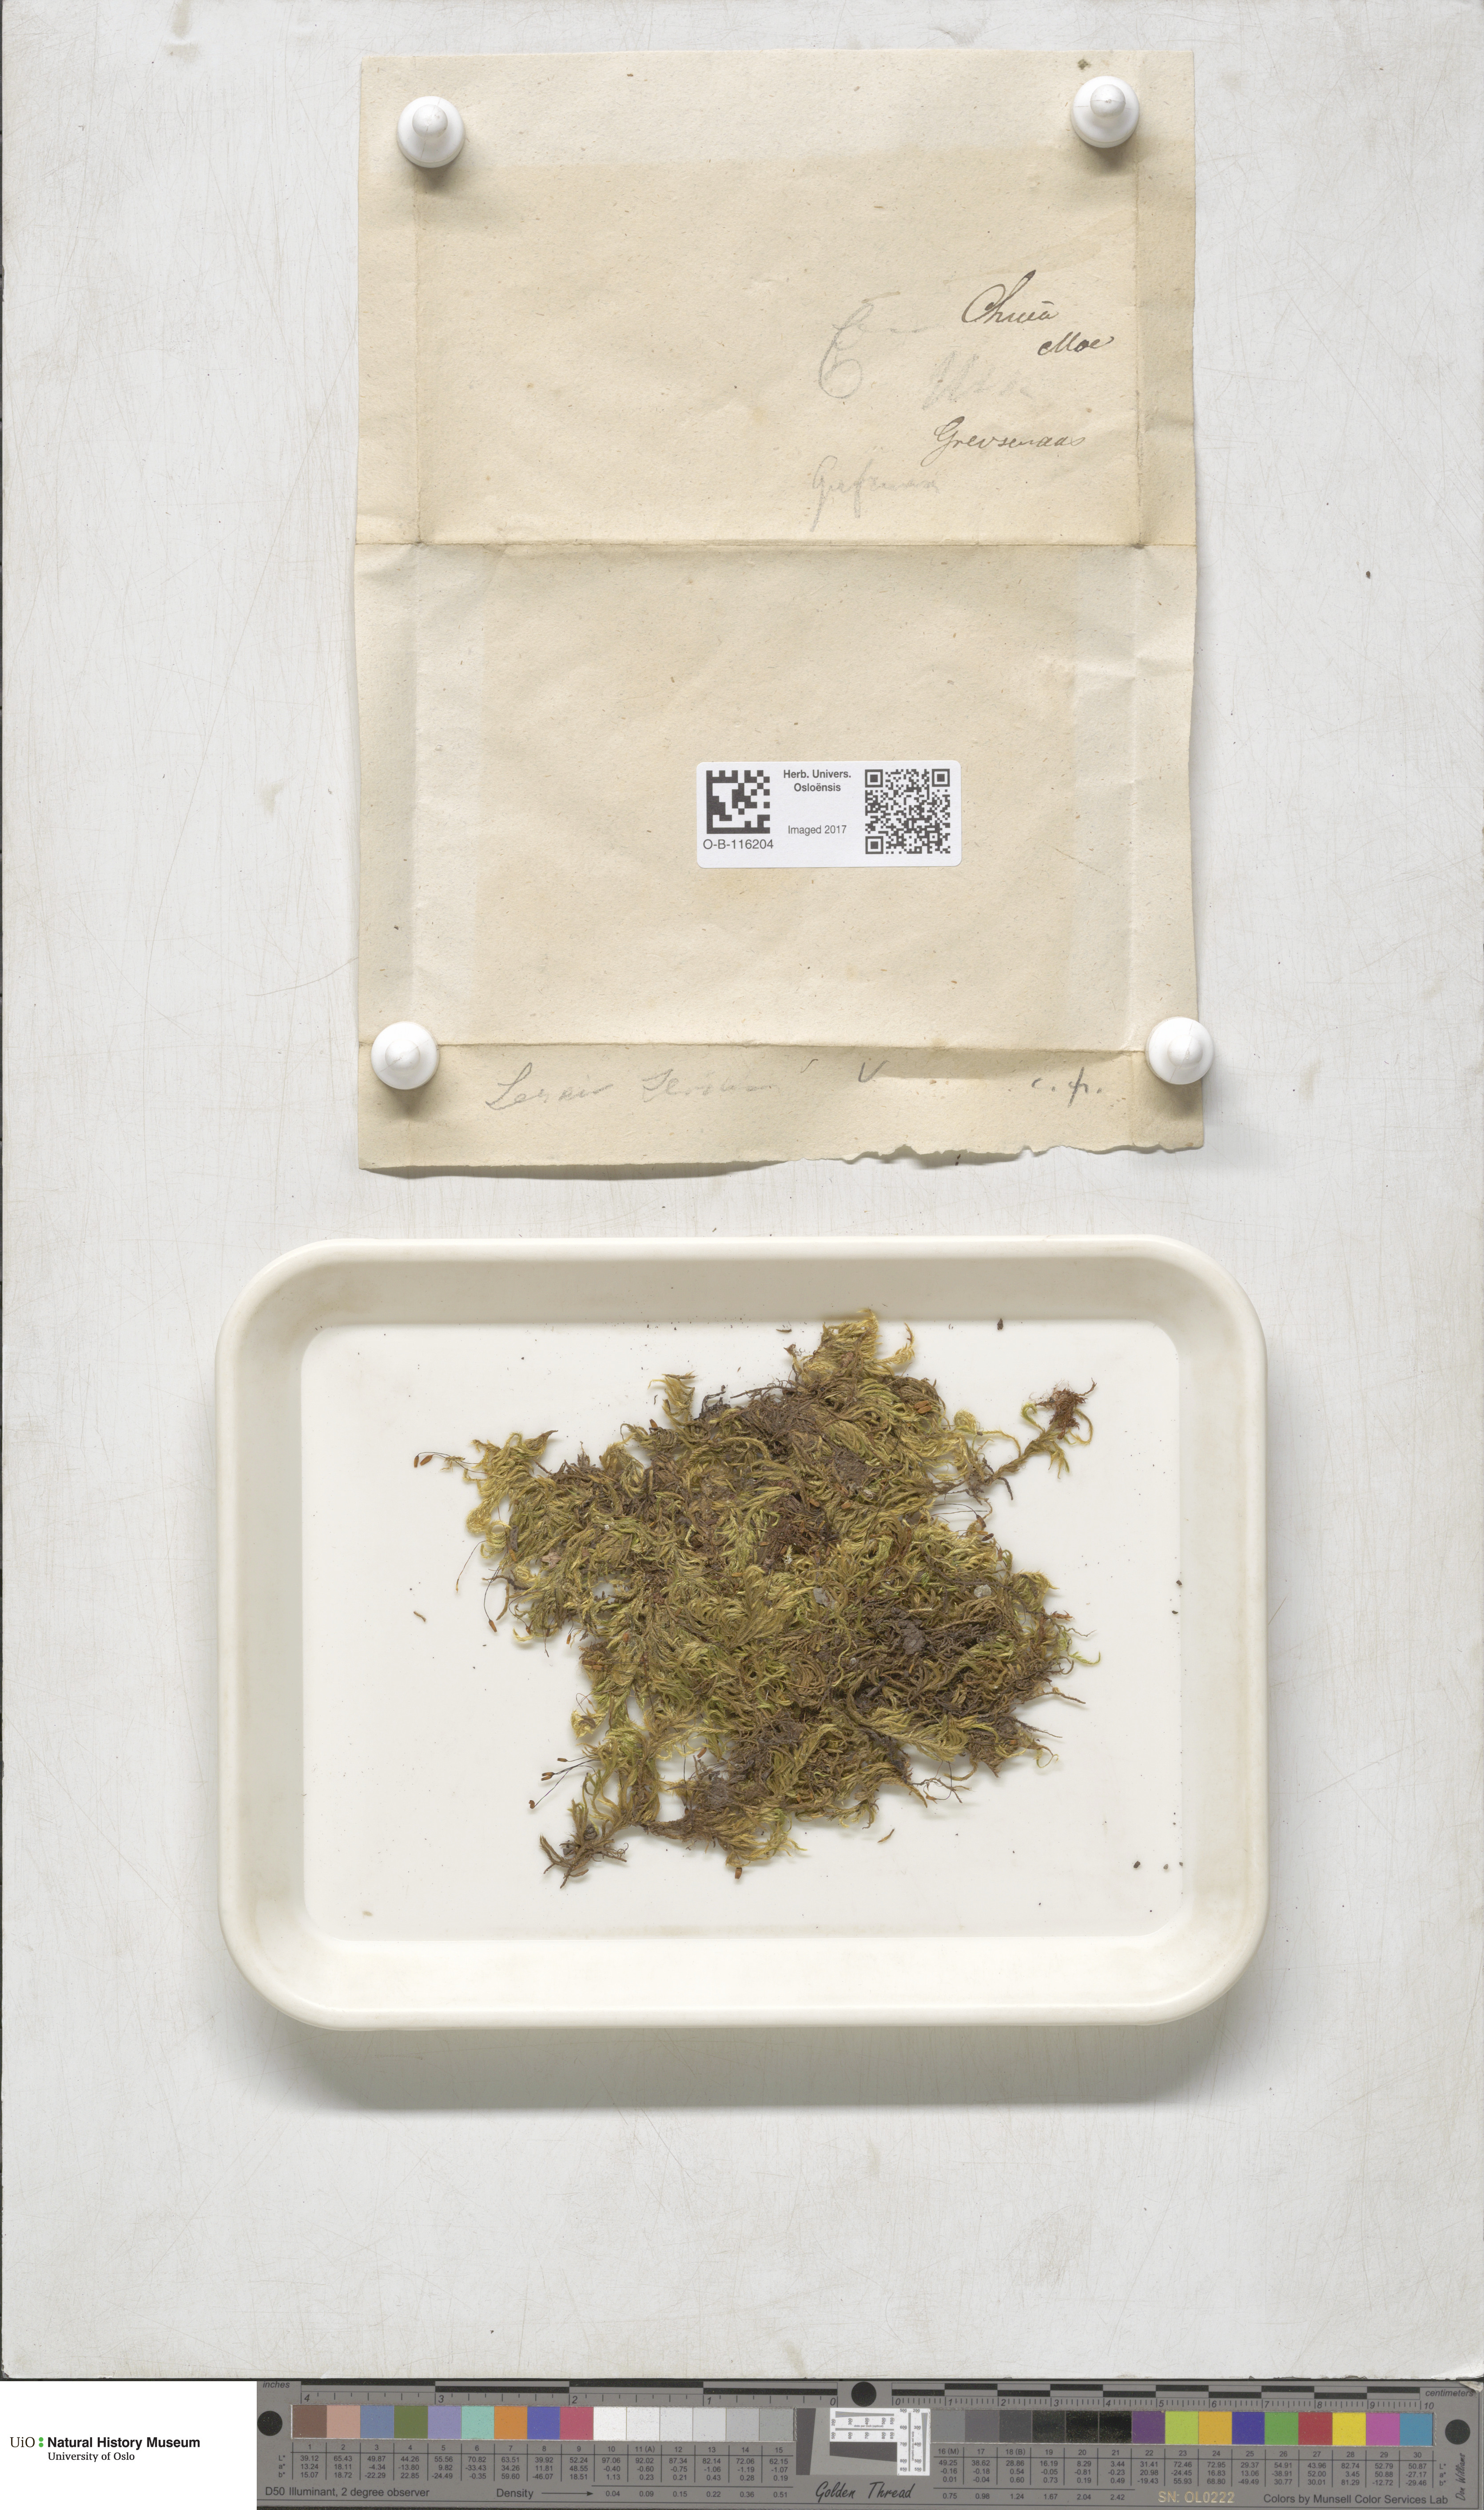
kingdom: Plantae
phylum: Bryophyta
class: Bryopsida
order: Hypnales
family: Brachytheciaceae
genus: Homalothecium
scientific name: Homalothecium sericeum
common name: Silky wall feather-moss
